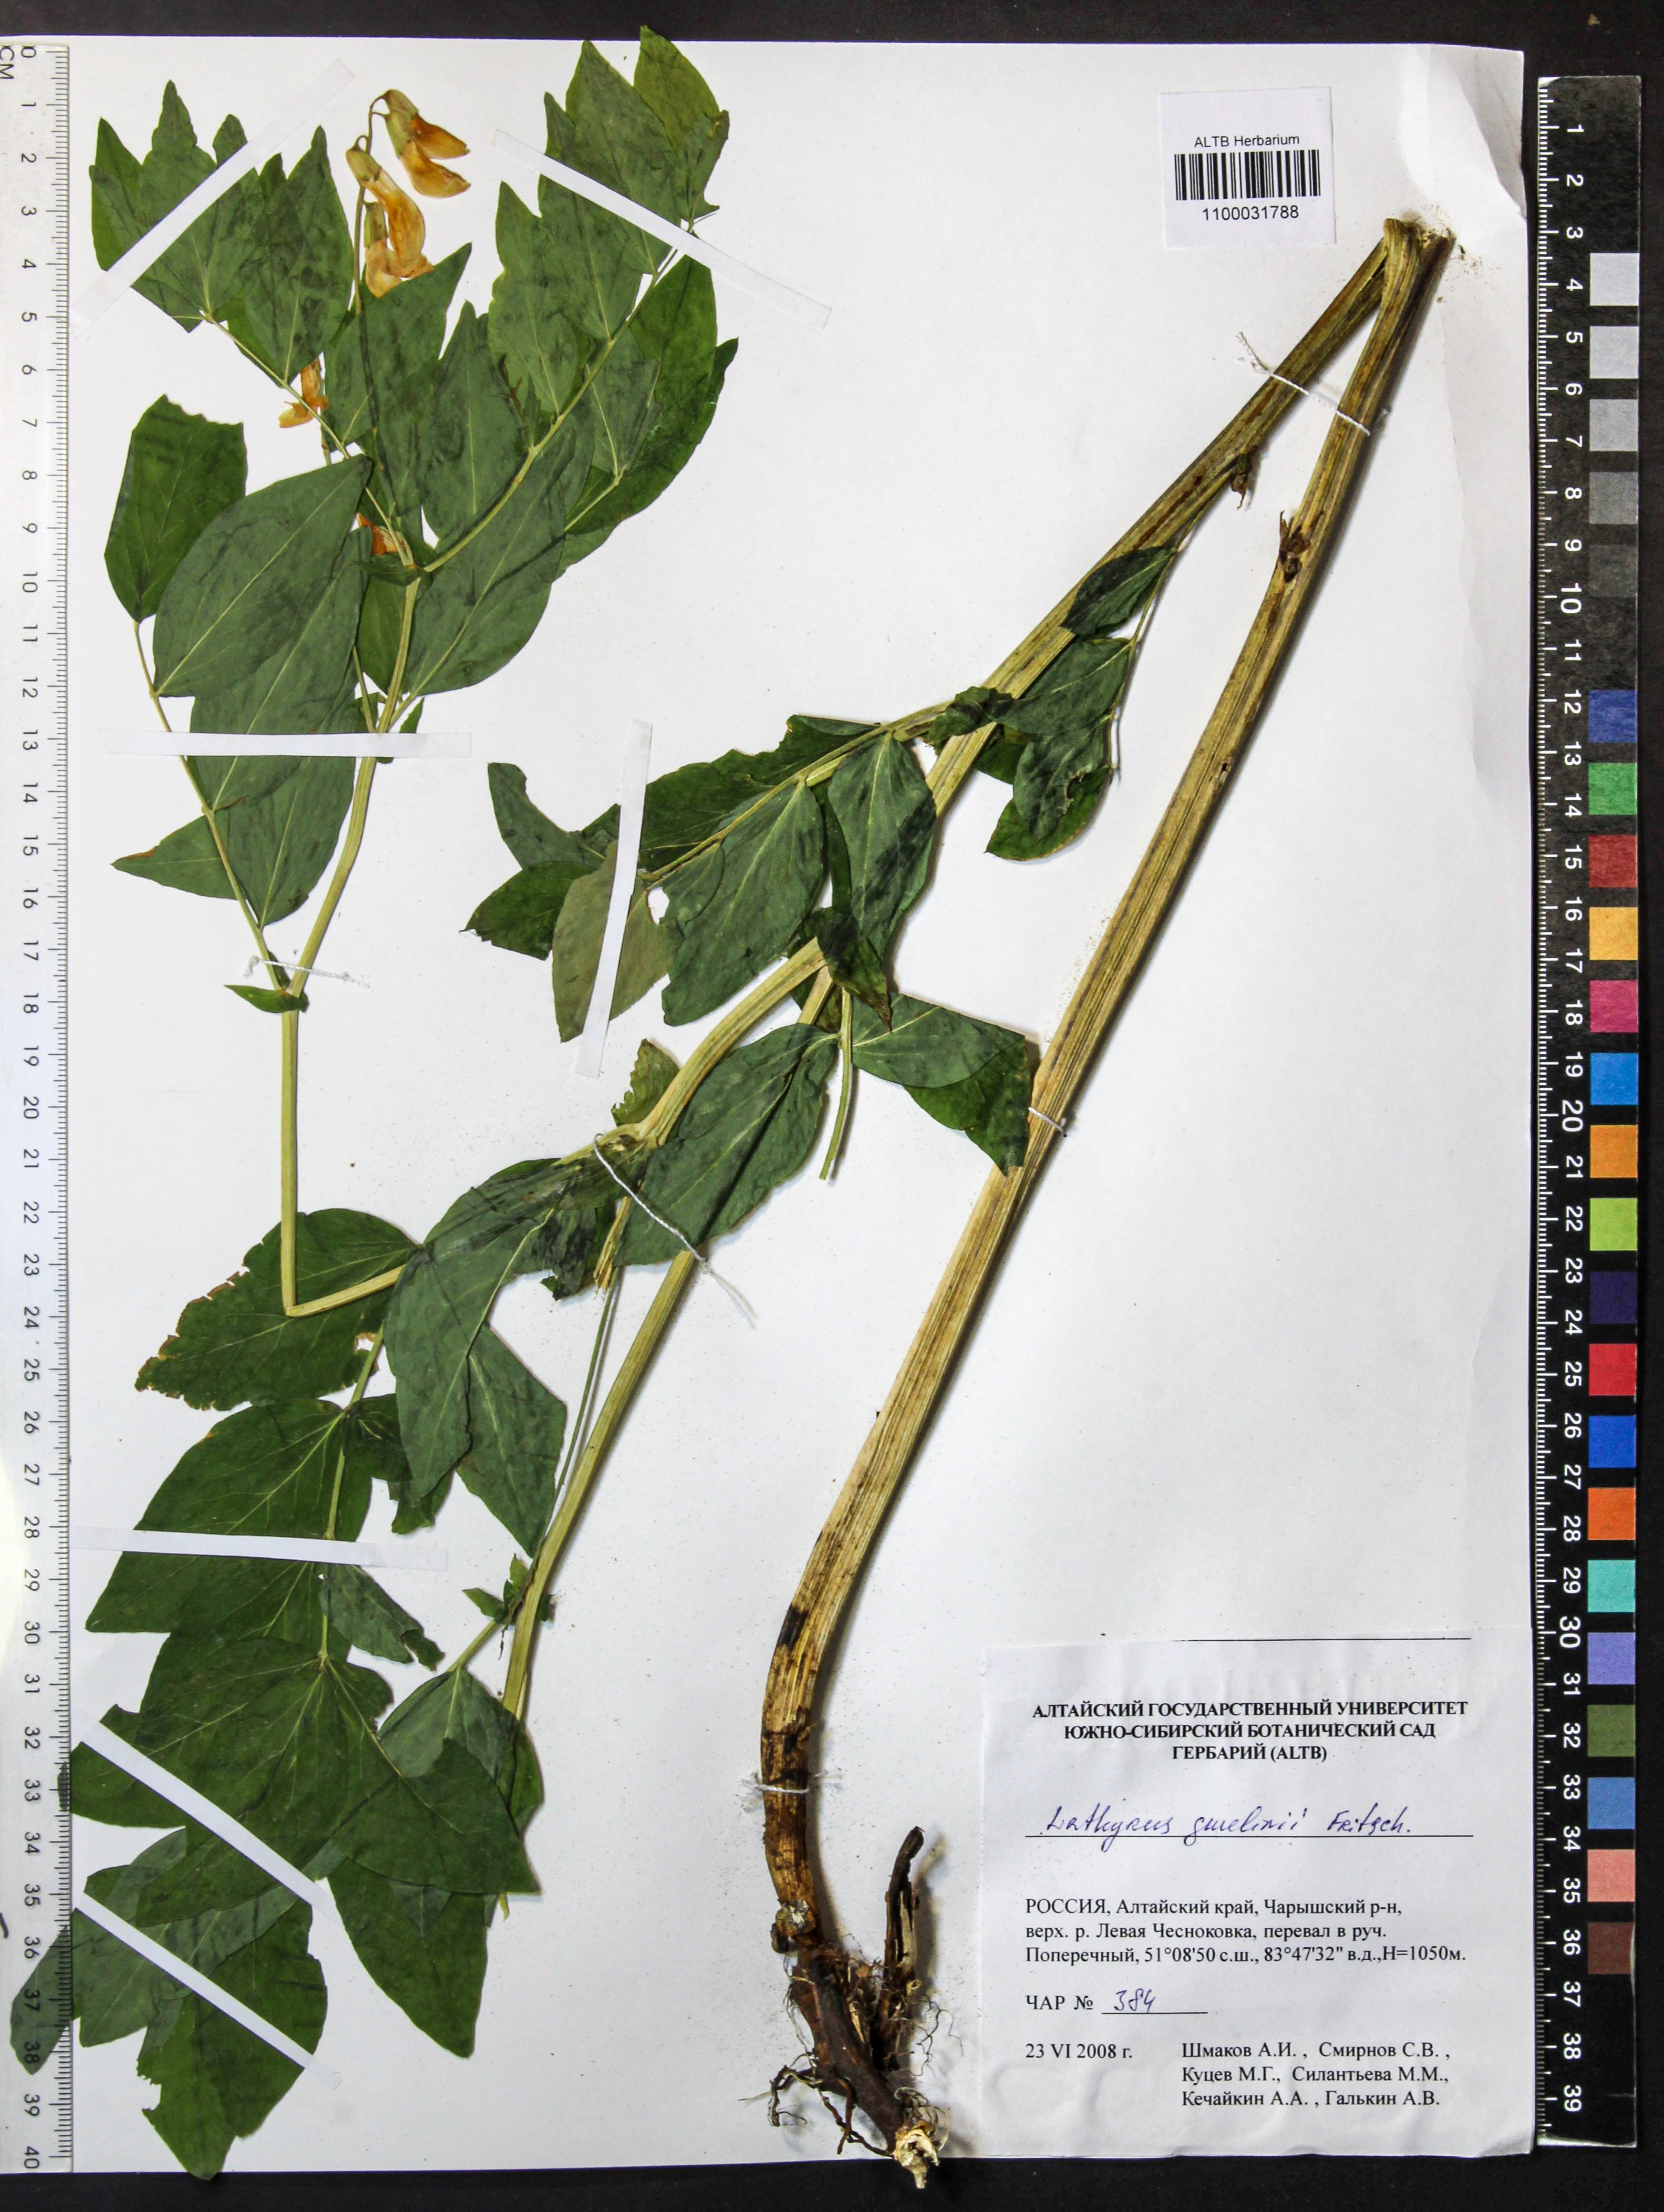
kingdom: Plantae
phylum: Tracheophyta
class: Magnoliopsida
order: Fabales
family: Fabaceae
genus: Lathyrus
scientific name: Lathyrus gmelinii
